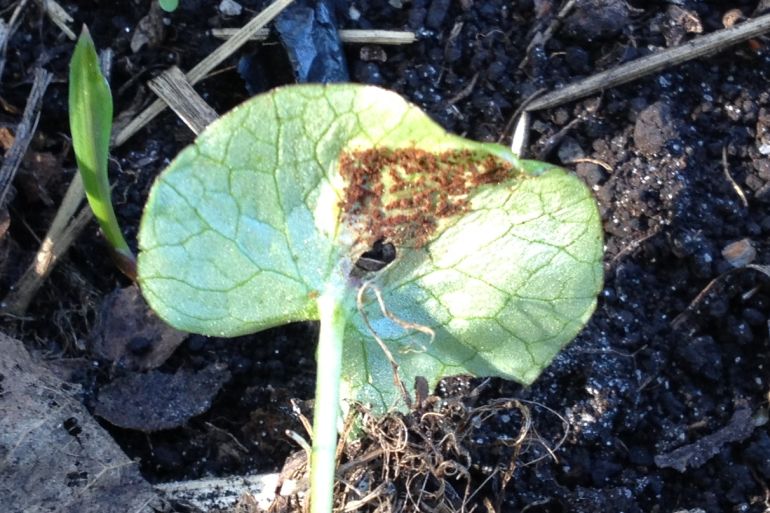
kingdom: Fungi
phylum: Basidiomycota
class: Pucciniomycetes
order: Pucciniales
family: Pucciniaceae
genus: Uromyces
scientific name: Uromyces ficariae
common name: vorterod-encellerust
